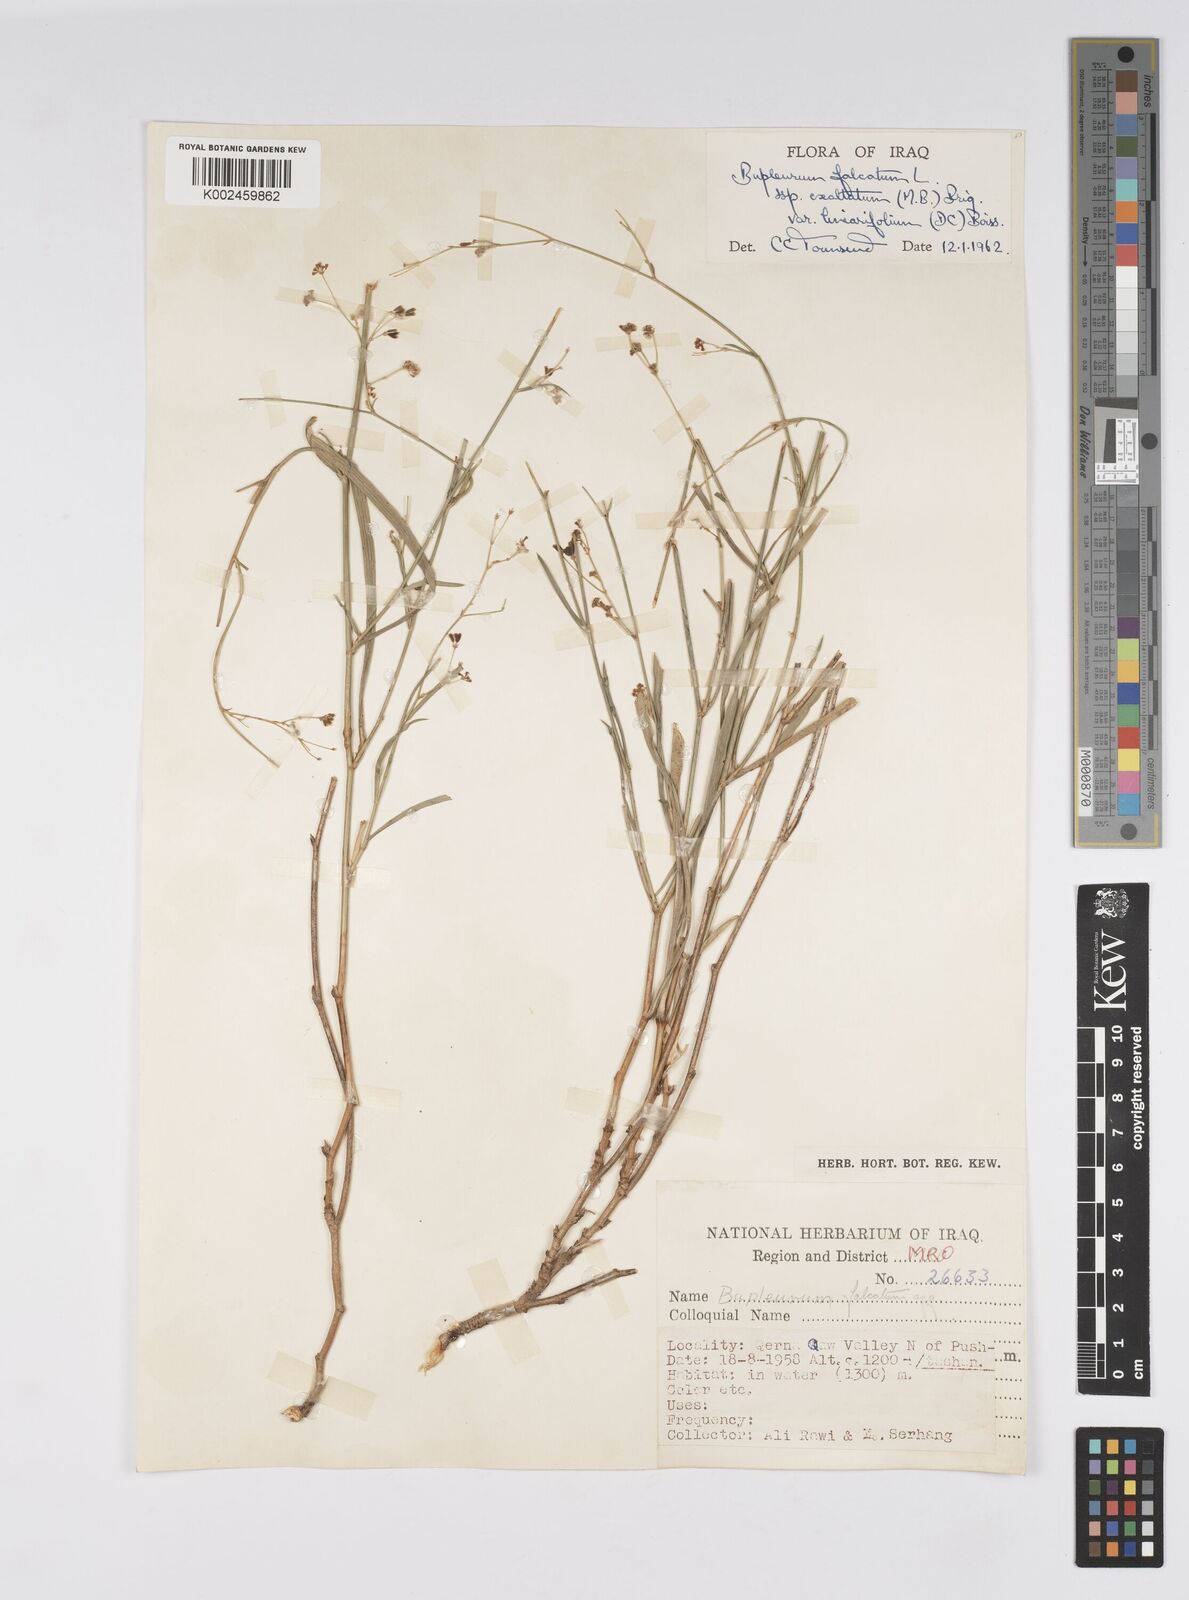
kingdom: Plantae
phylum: Tracheophyta
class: Magnoliopsida
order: Apiales
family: Apiaceae
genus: Bupleurum
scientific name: Bupleurum falcatum
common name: Sickle-leaved hare's-ear
